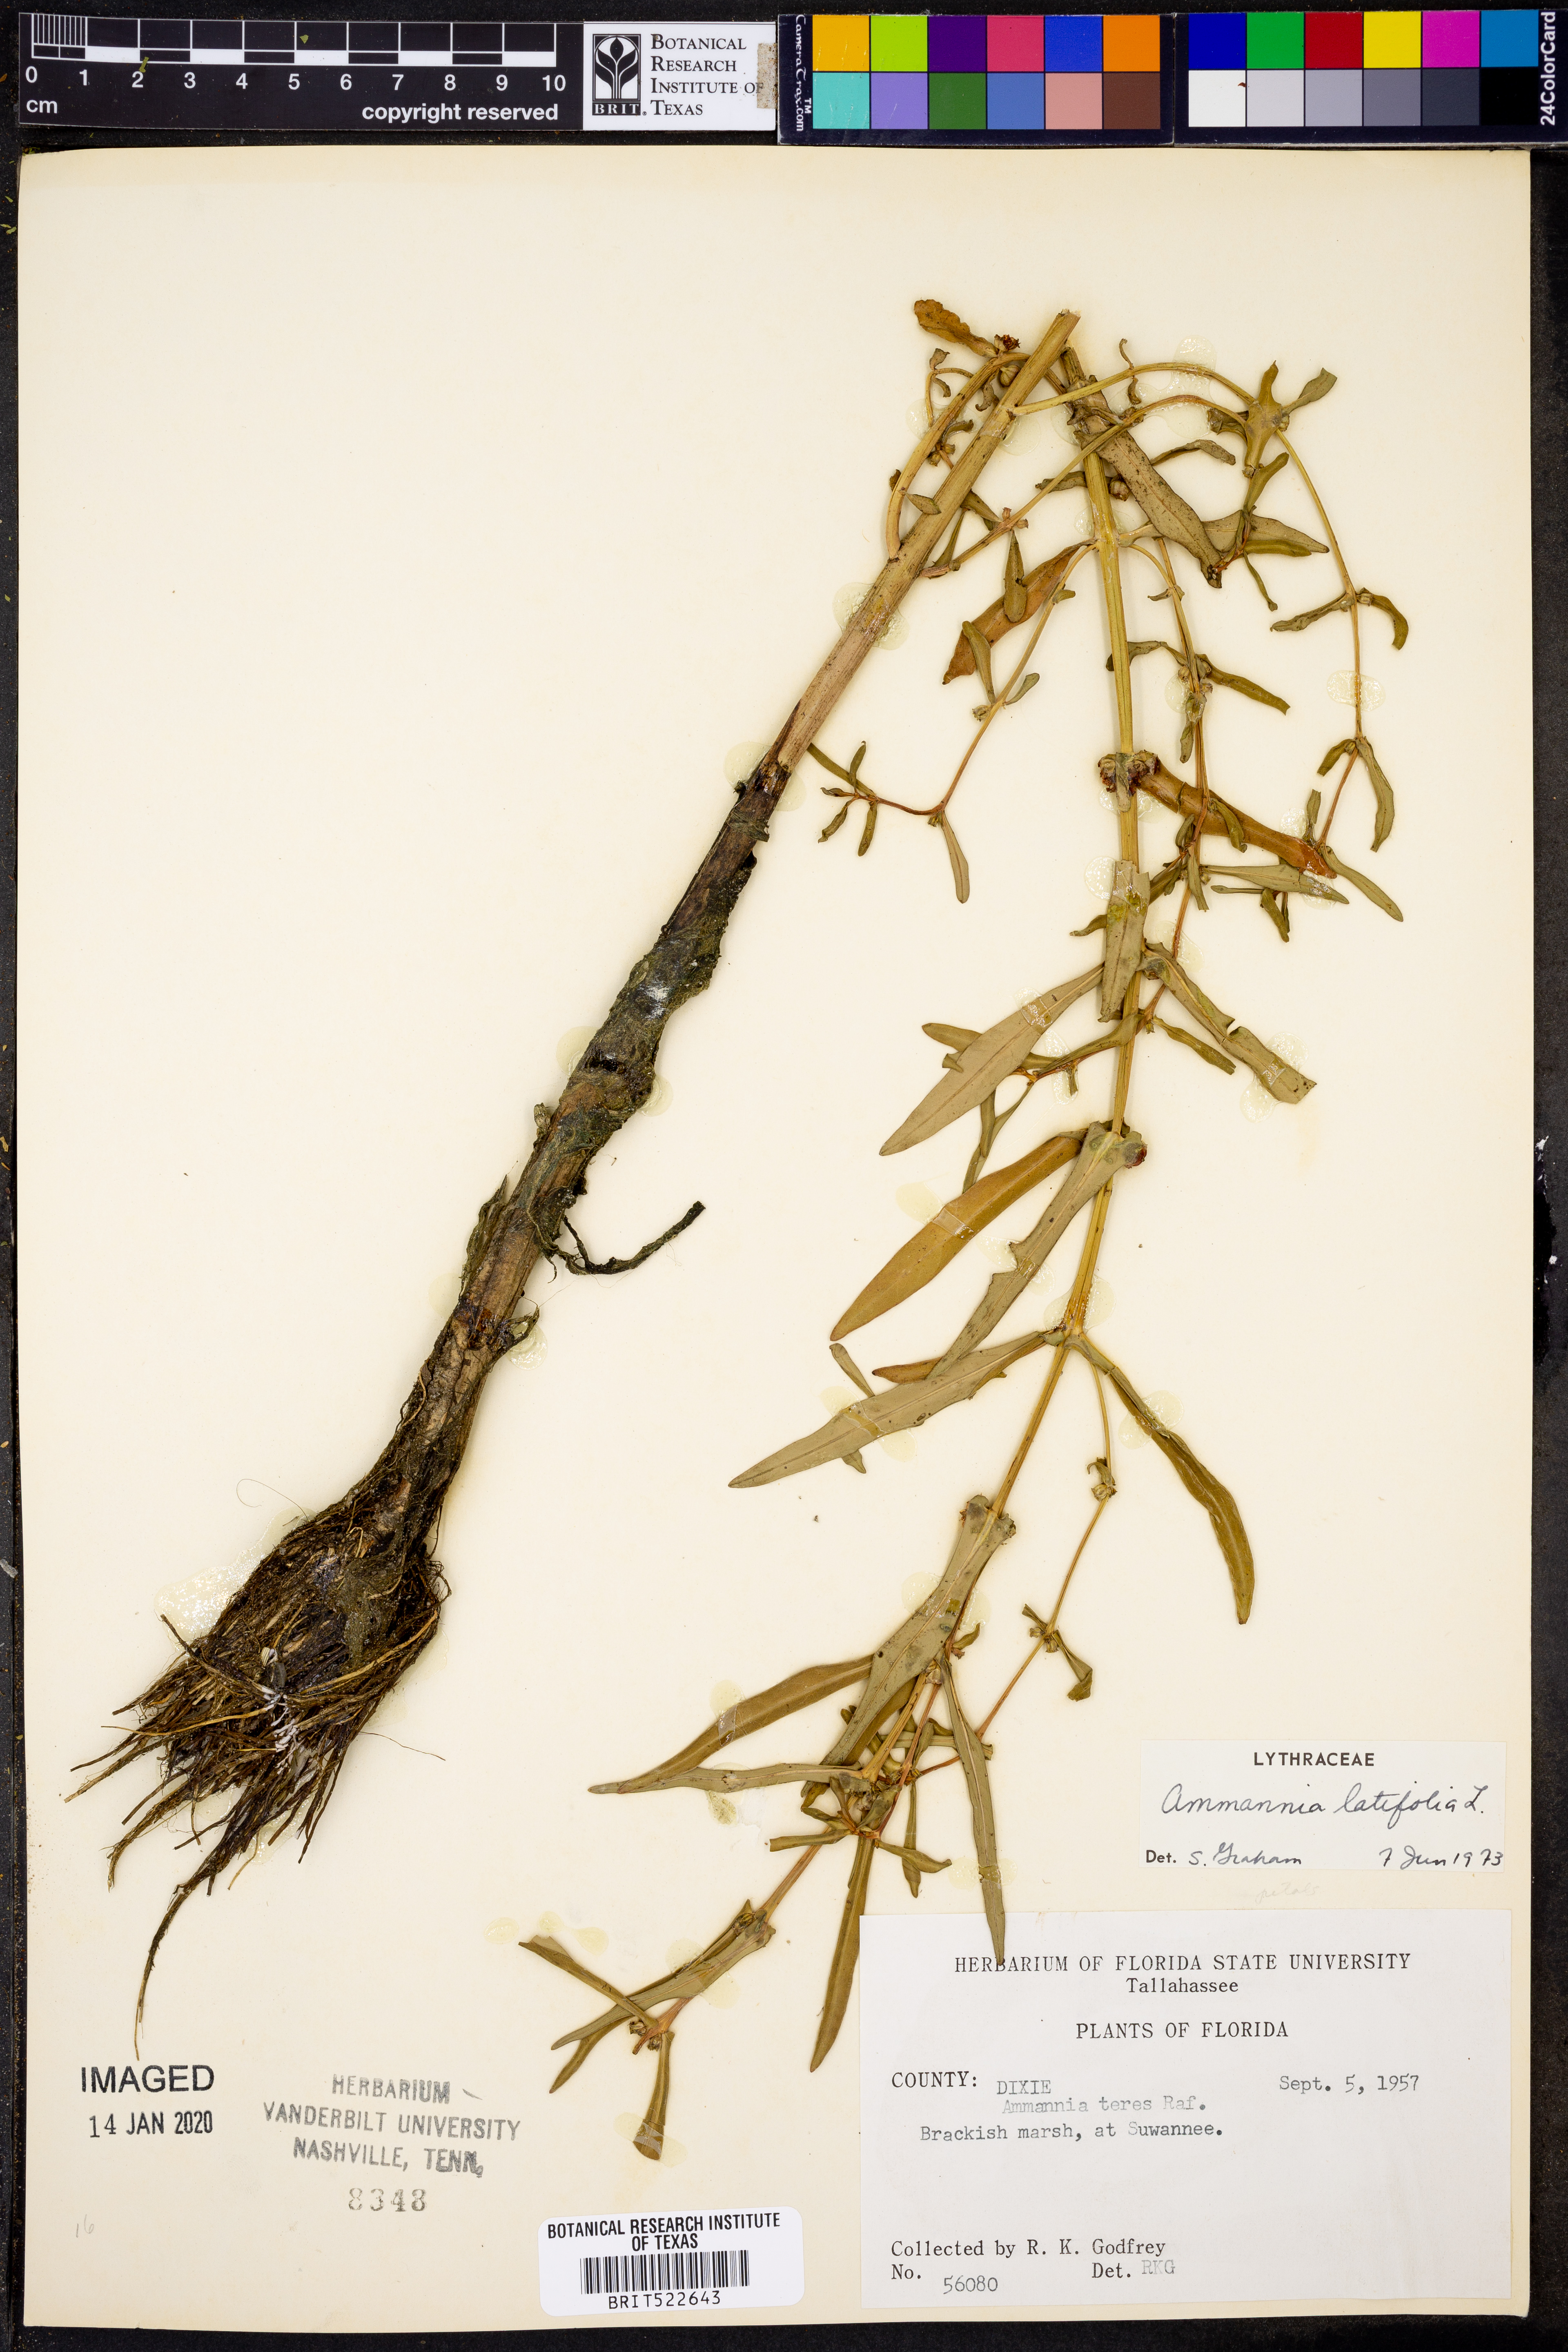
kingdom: Plantae
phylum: Tracheophyta
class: Magnoliopsida
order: Myrtales
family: Lythraceae
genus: Ammannia
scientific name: Ammannia latifolia
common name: Toothcup
